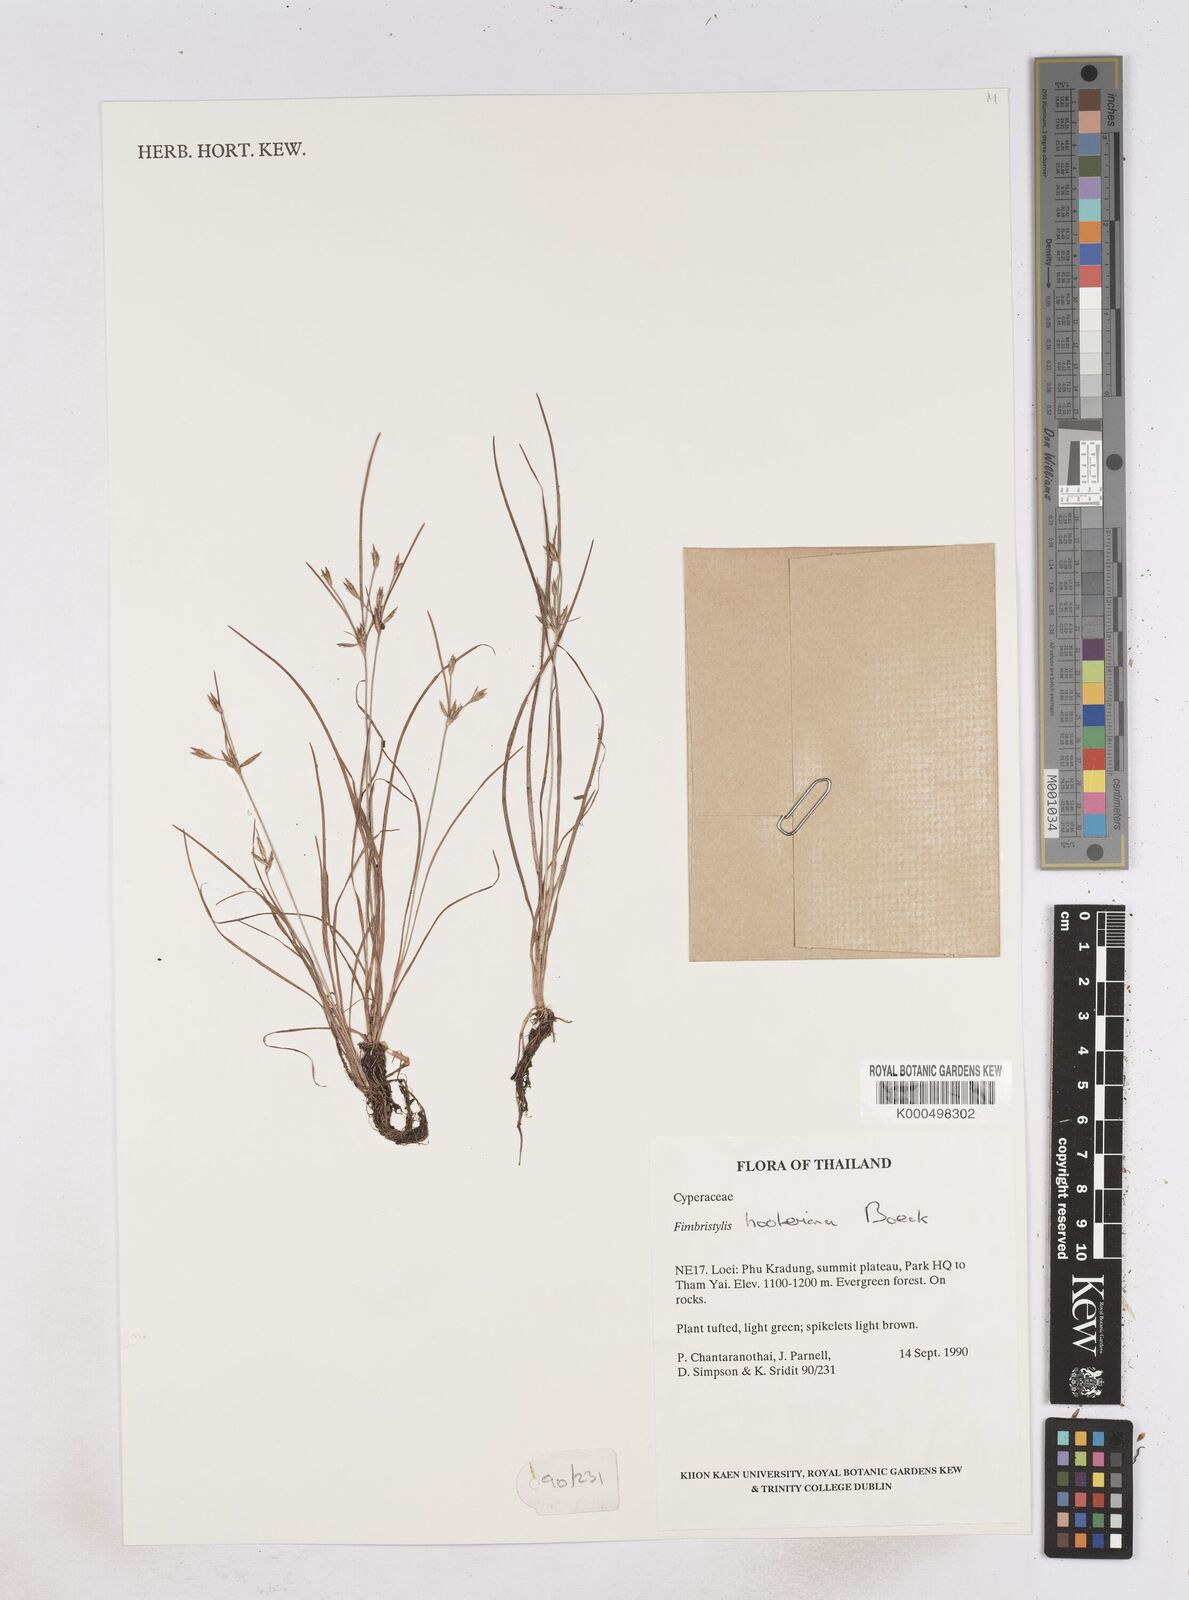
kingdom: Plantae
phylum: Tracheophyta
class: Liliopsida
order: Poales
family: Cyperaceae
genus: Fimbristylis
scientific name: Fimbristylis hookeriana
